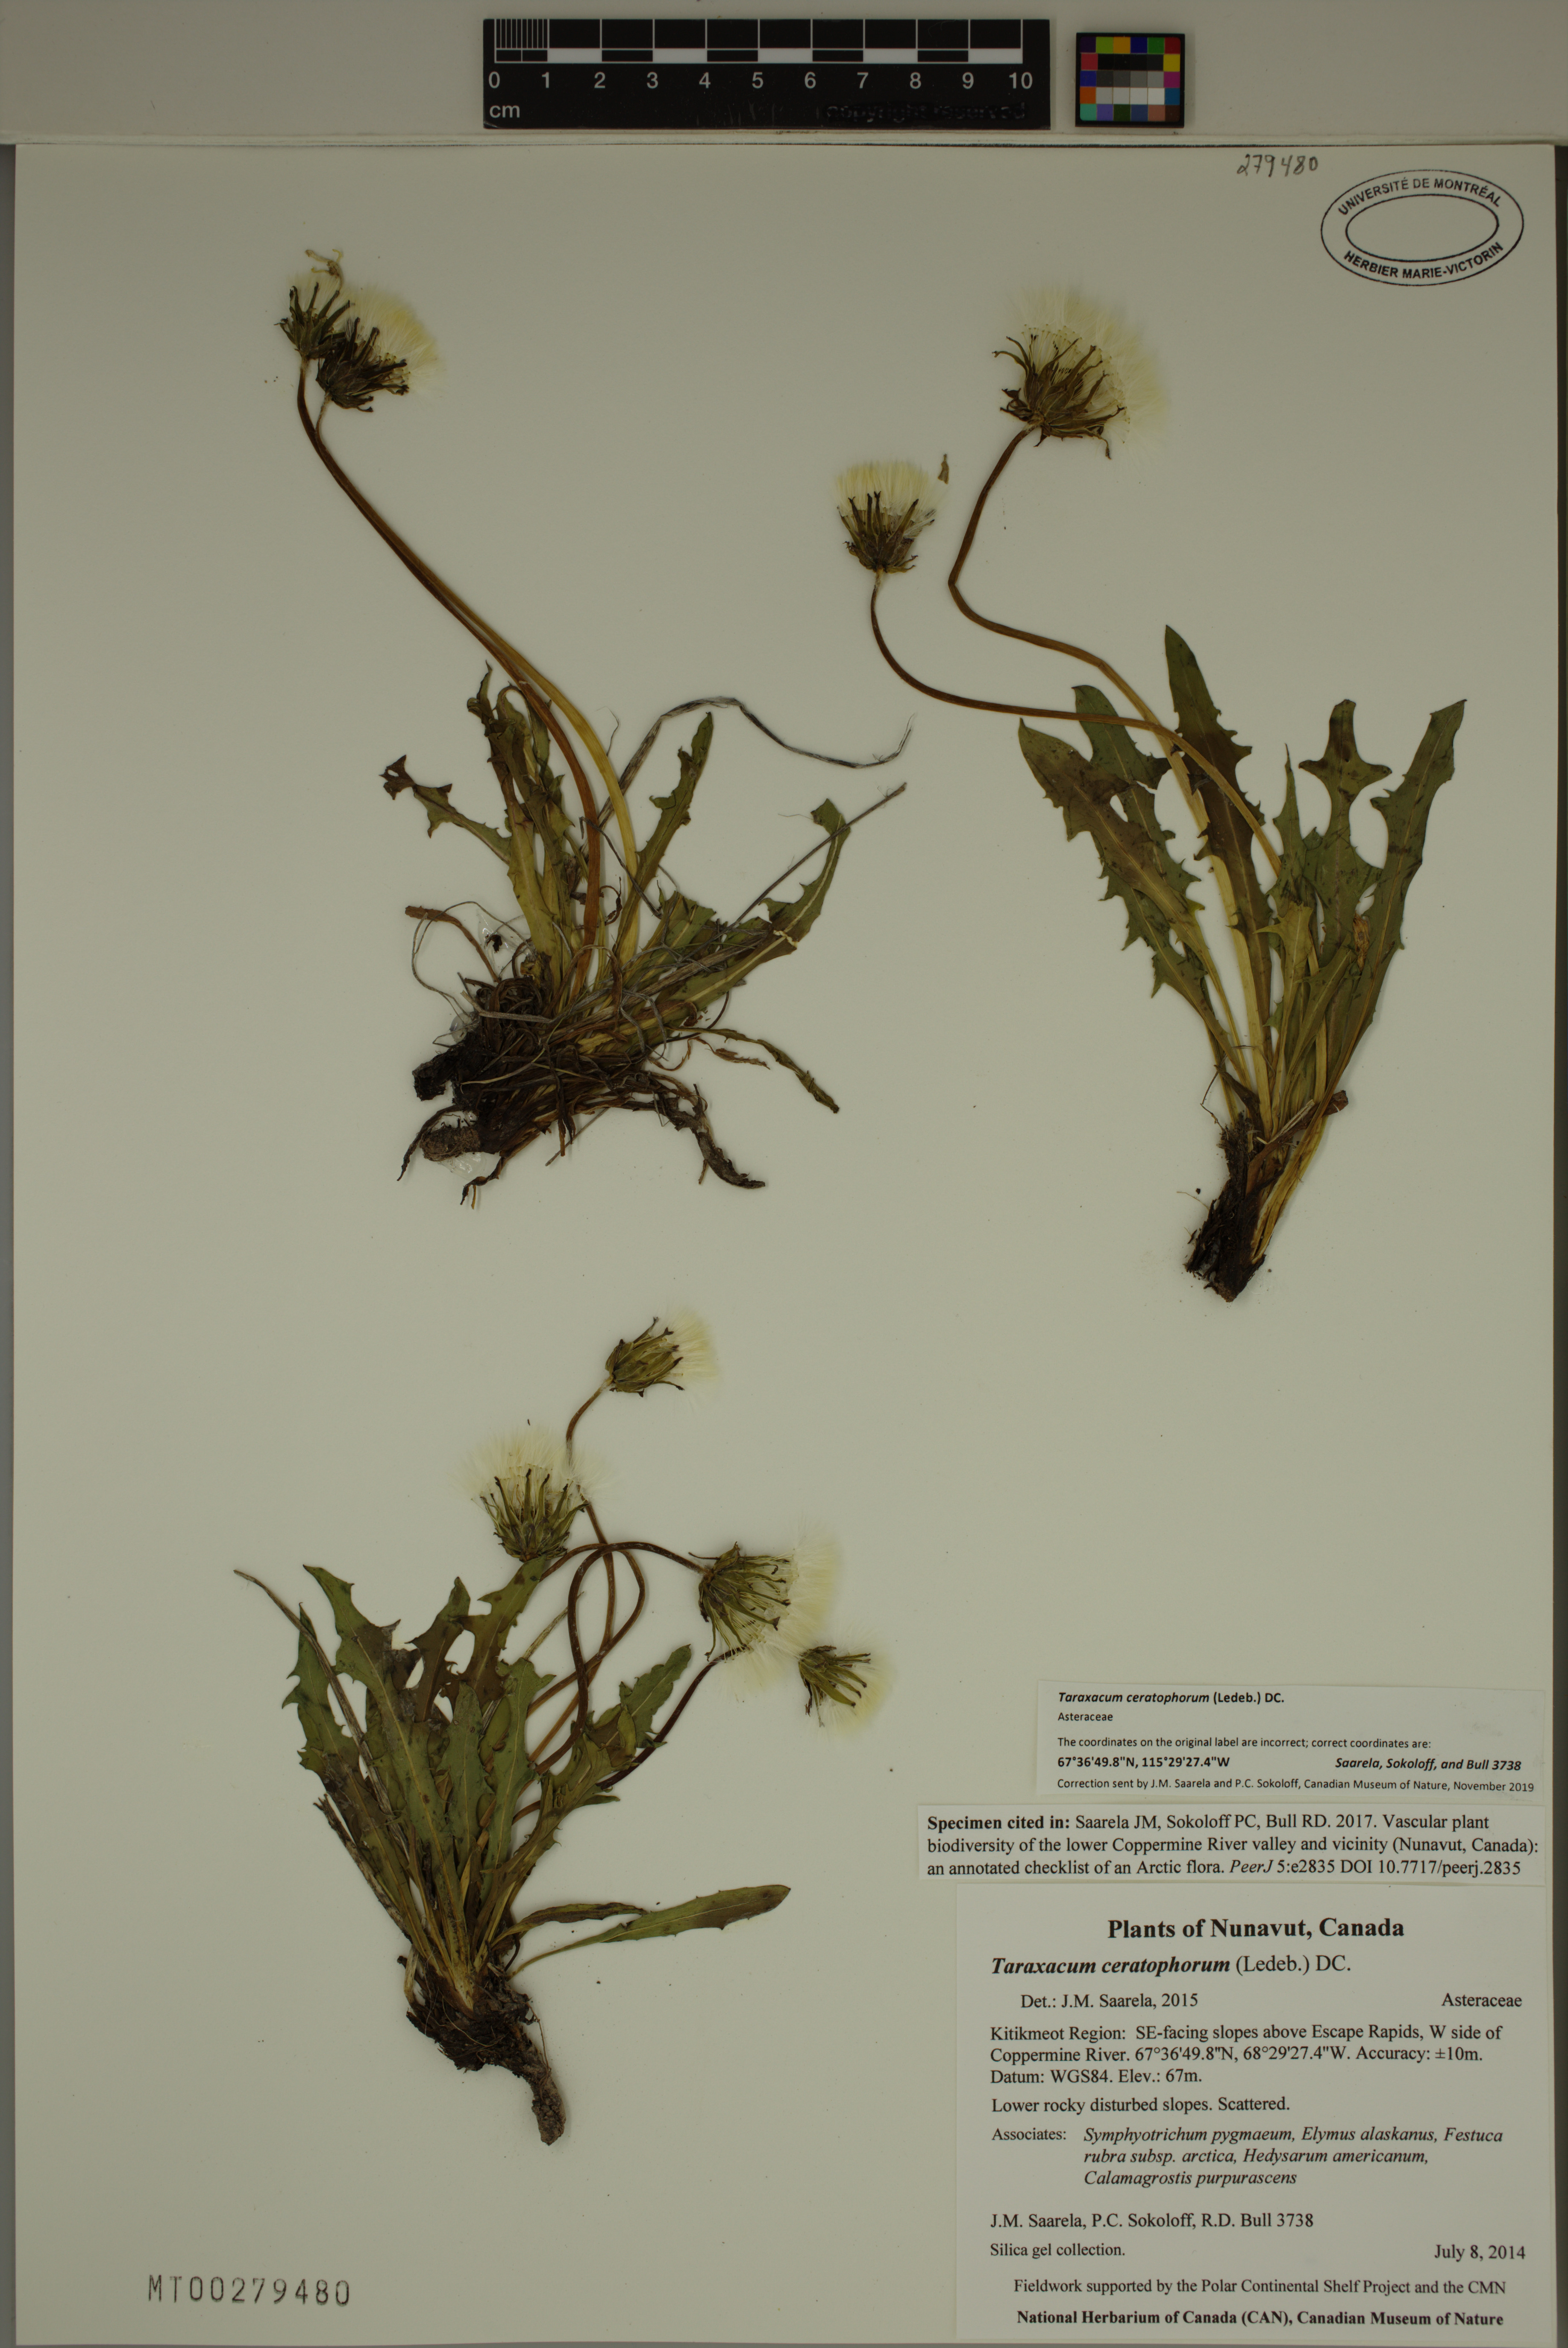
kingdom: Plantae
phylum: Tracheophyta
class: Magnoliopsida
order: Asterales
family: Asteraceae
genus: Taraxacum
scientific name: Taraxacum ceratophorum
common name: Horn-bearing dandelion
